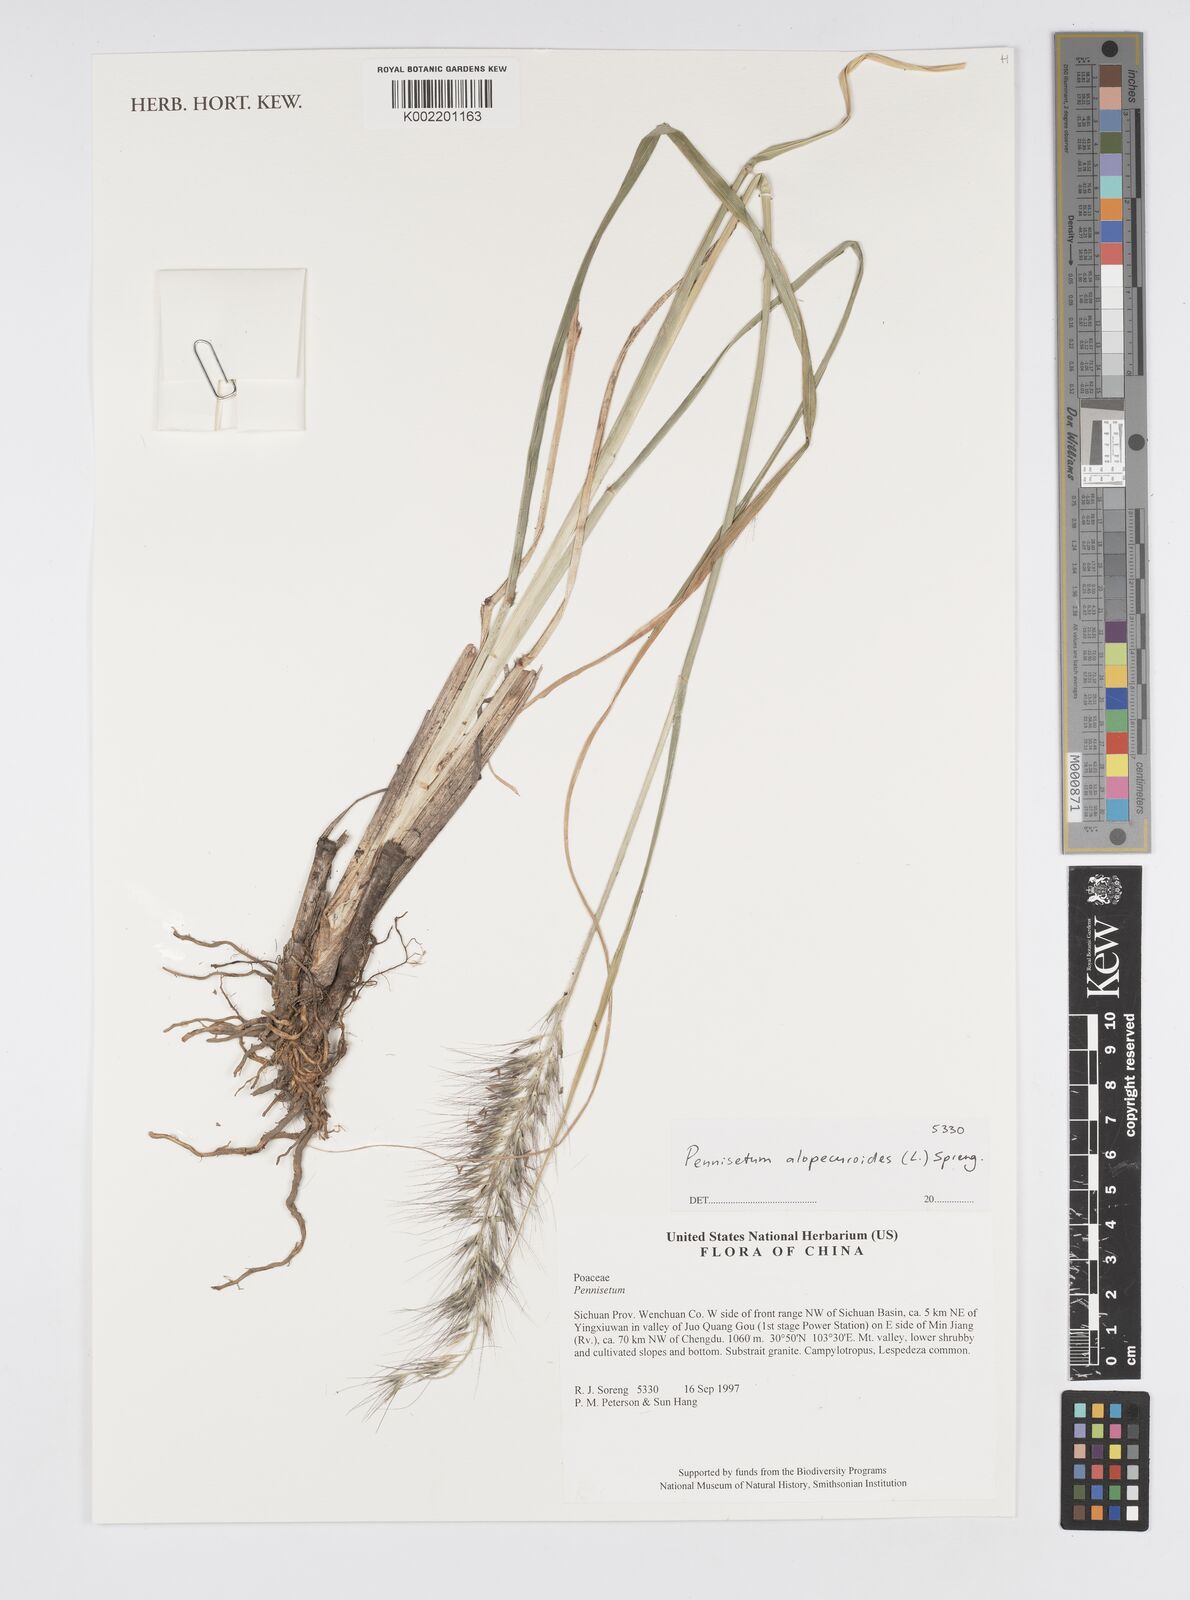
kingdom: Plantae
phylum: Tracheophyta
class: Liliopsida
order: Poales
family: Poaceae
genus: Cenchrus
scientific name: Cenchrus alopecuroides
